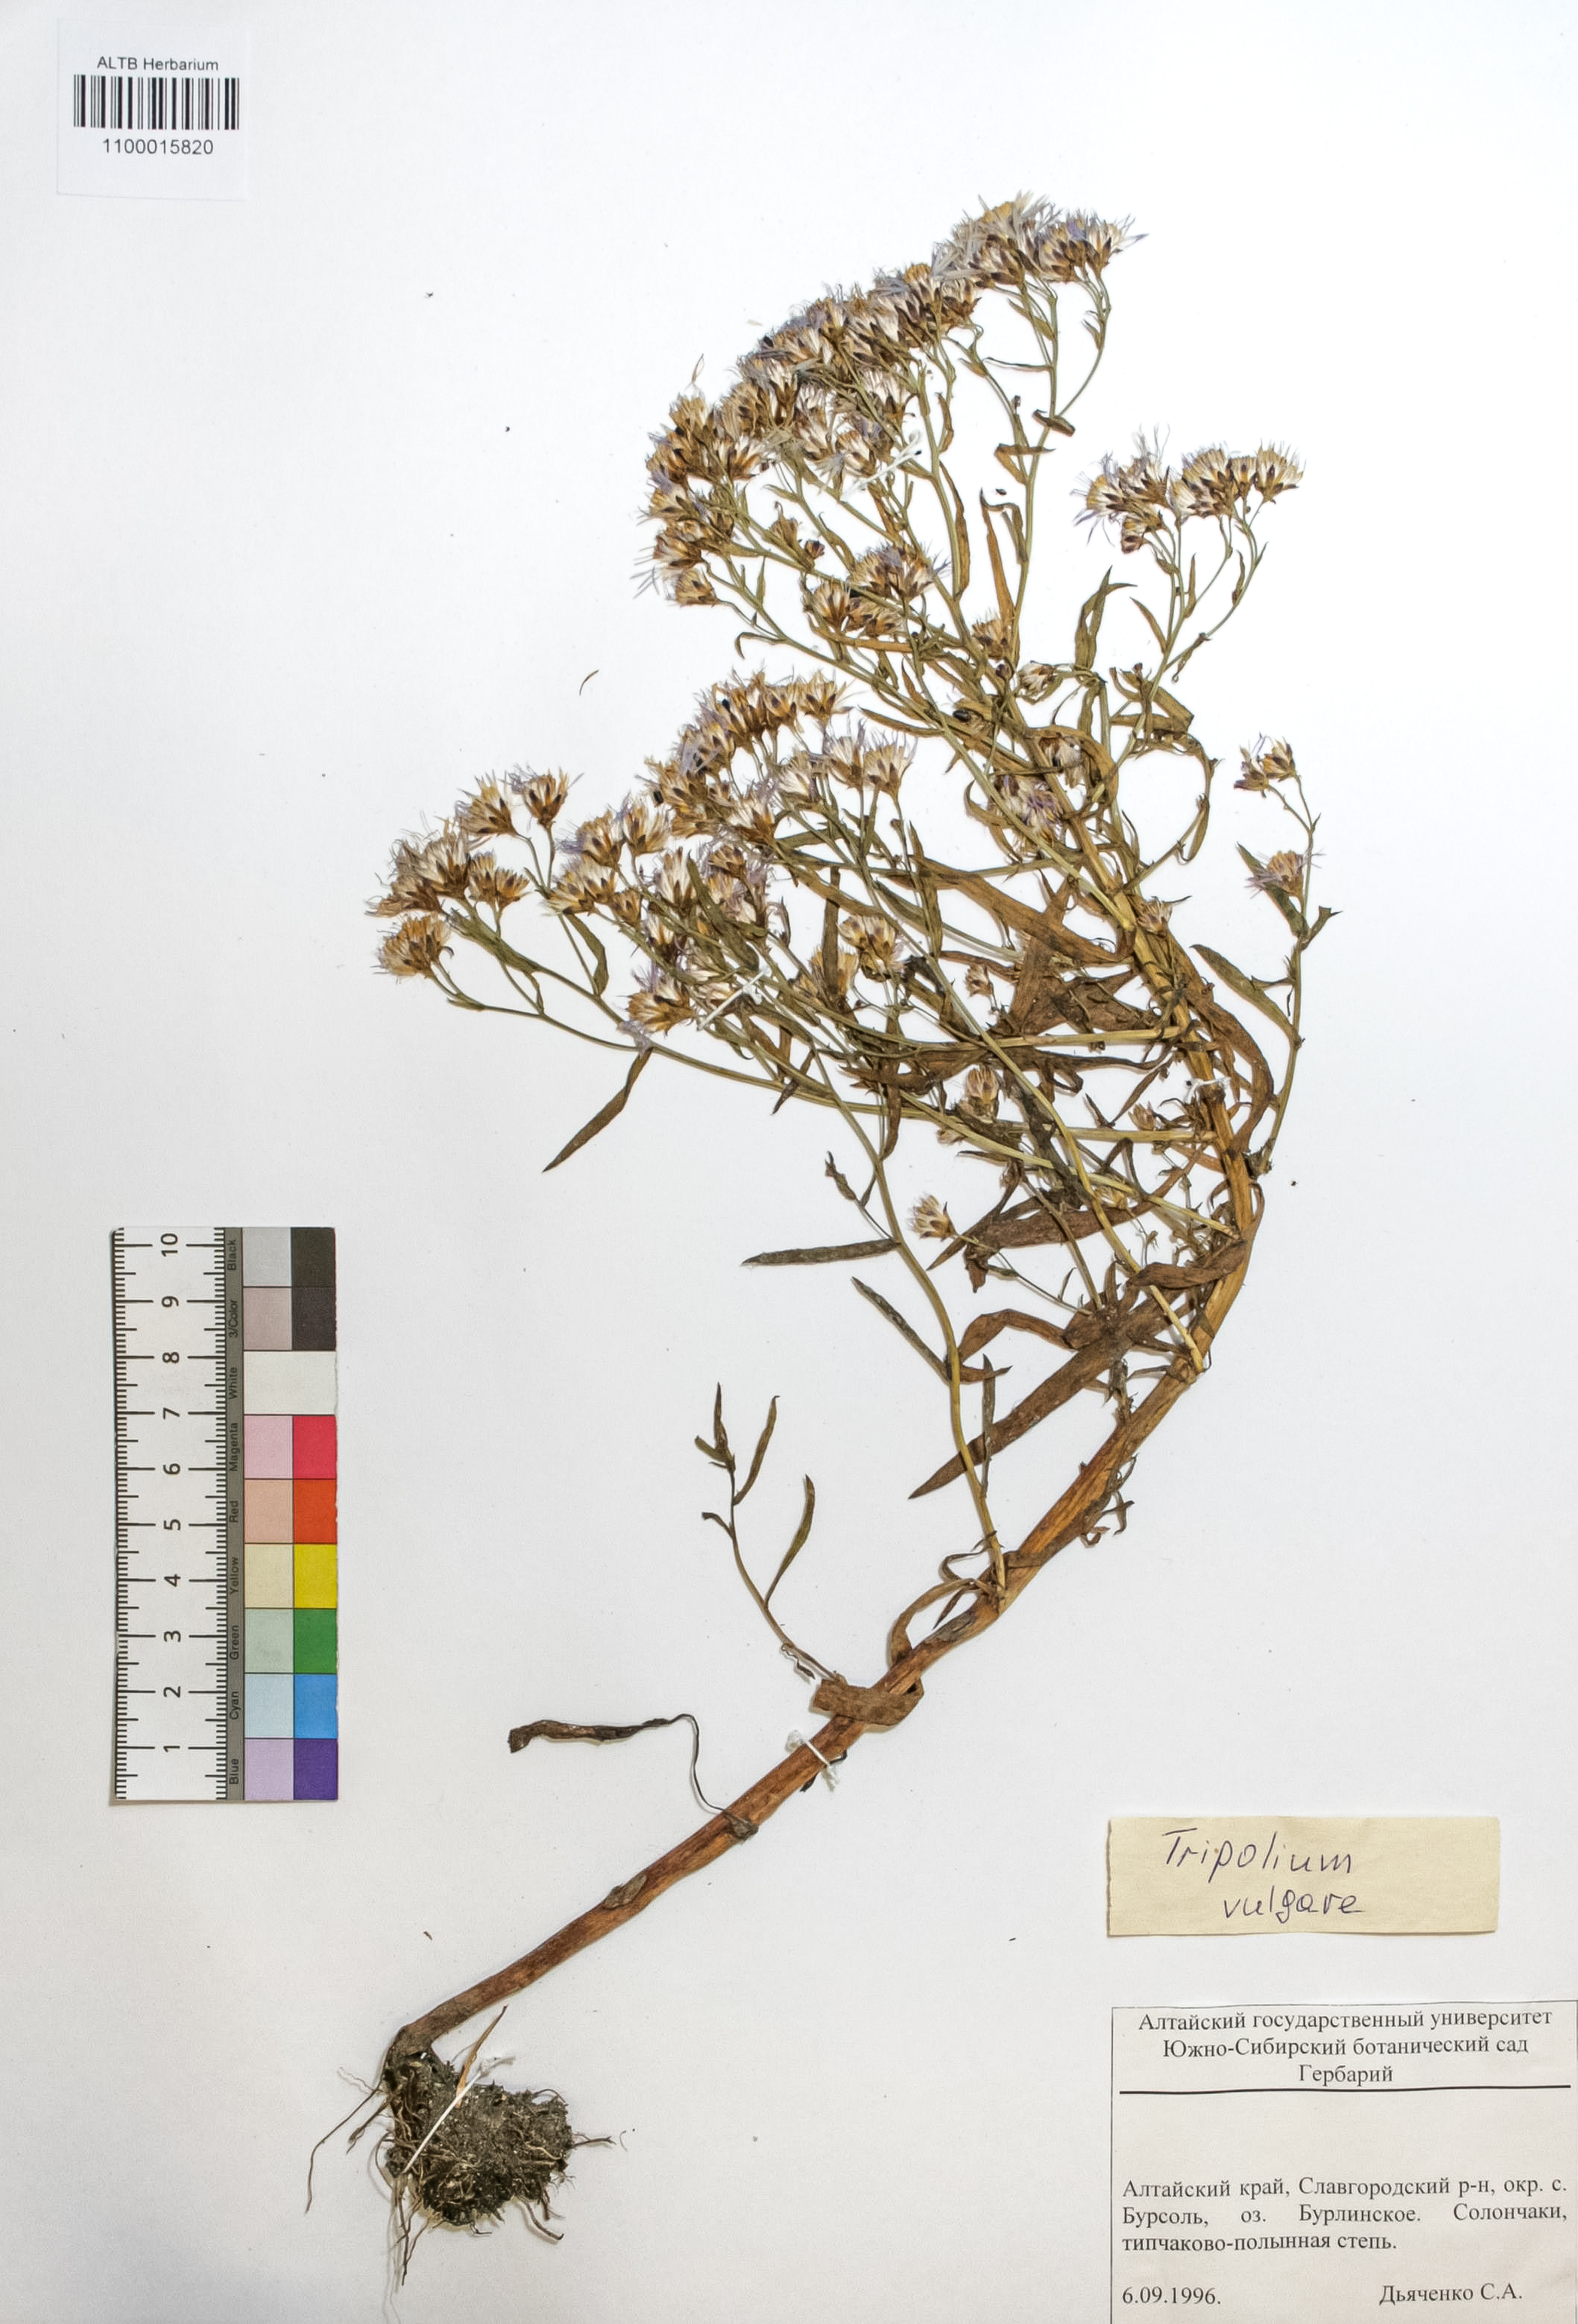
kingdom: Plantae
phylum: Tracheophyta
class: Magnoliopsida
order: Asterales
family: Asteraceae
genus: Tripolium
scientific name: Tripolium pannonicum
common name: Sea aster
